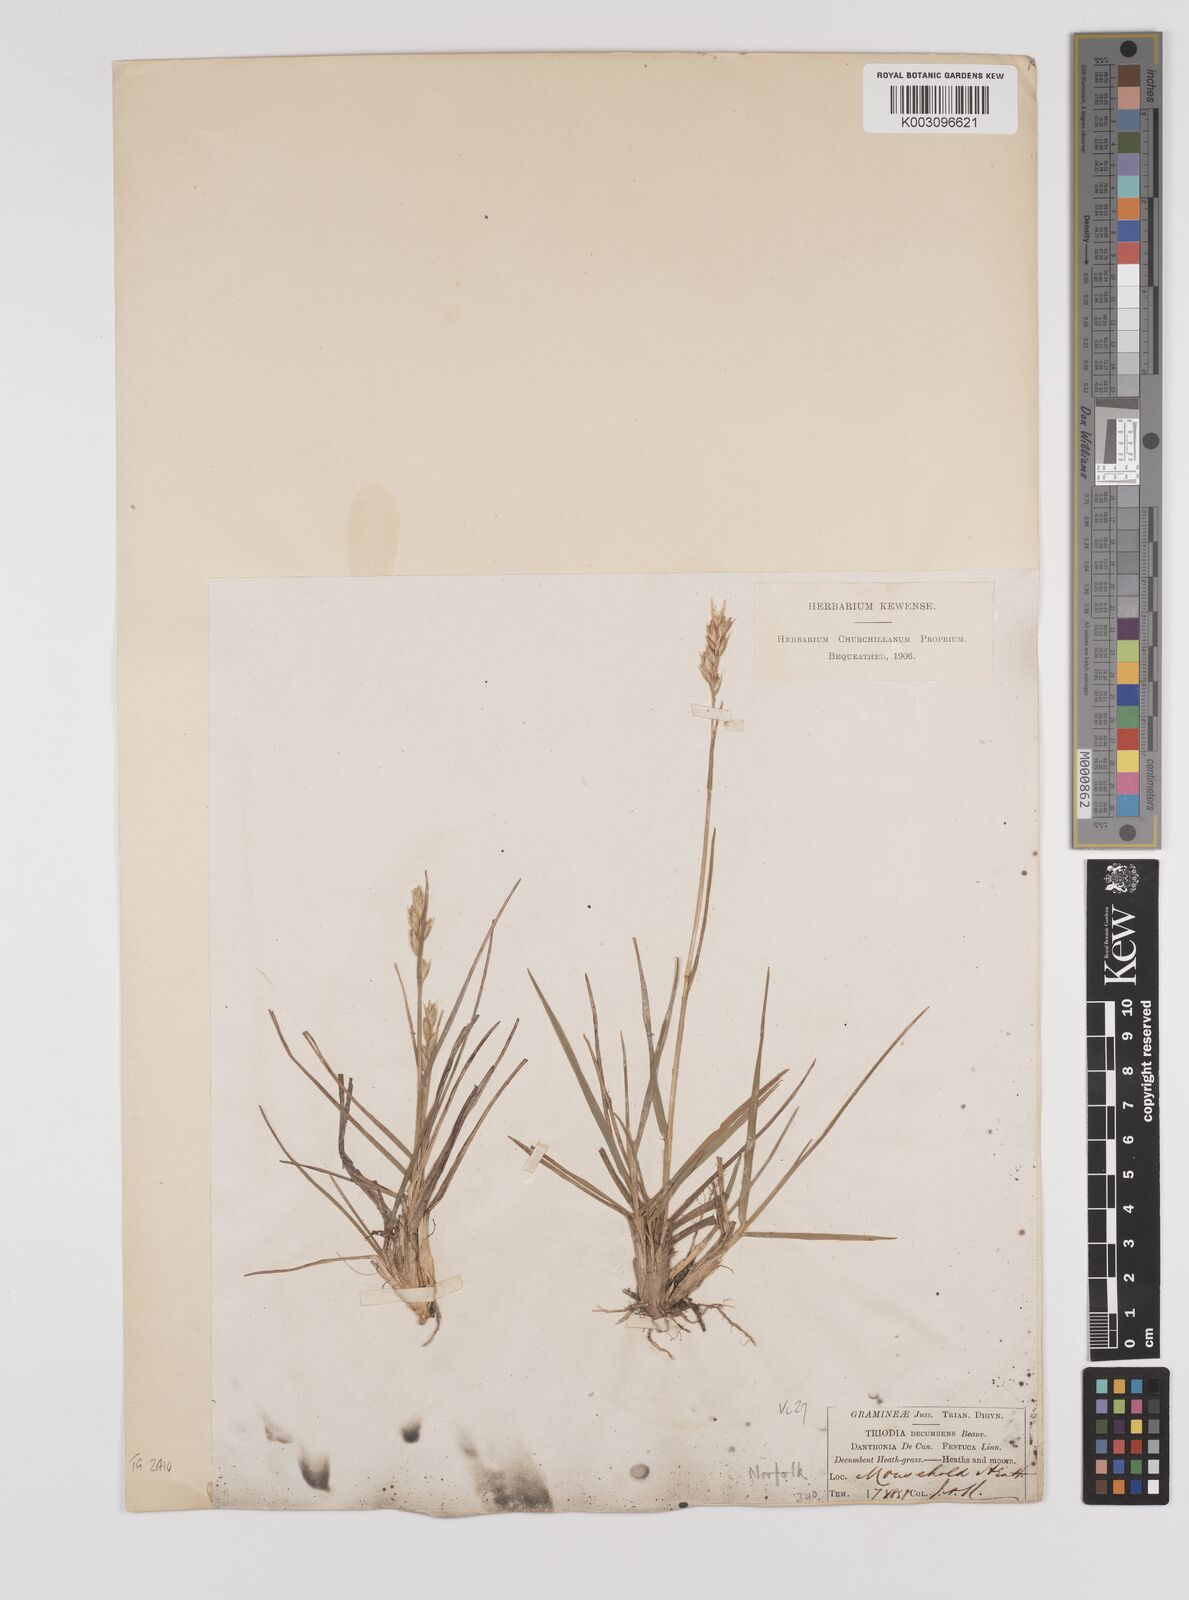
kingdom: Plantae
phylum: Tracheophyta
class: Liliopsida
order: Poales
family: Poaceae
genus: Danthonia
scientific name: Danthonia decumbens
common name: Common heathgrass
